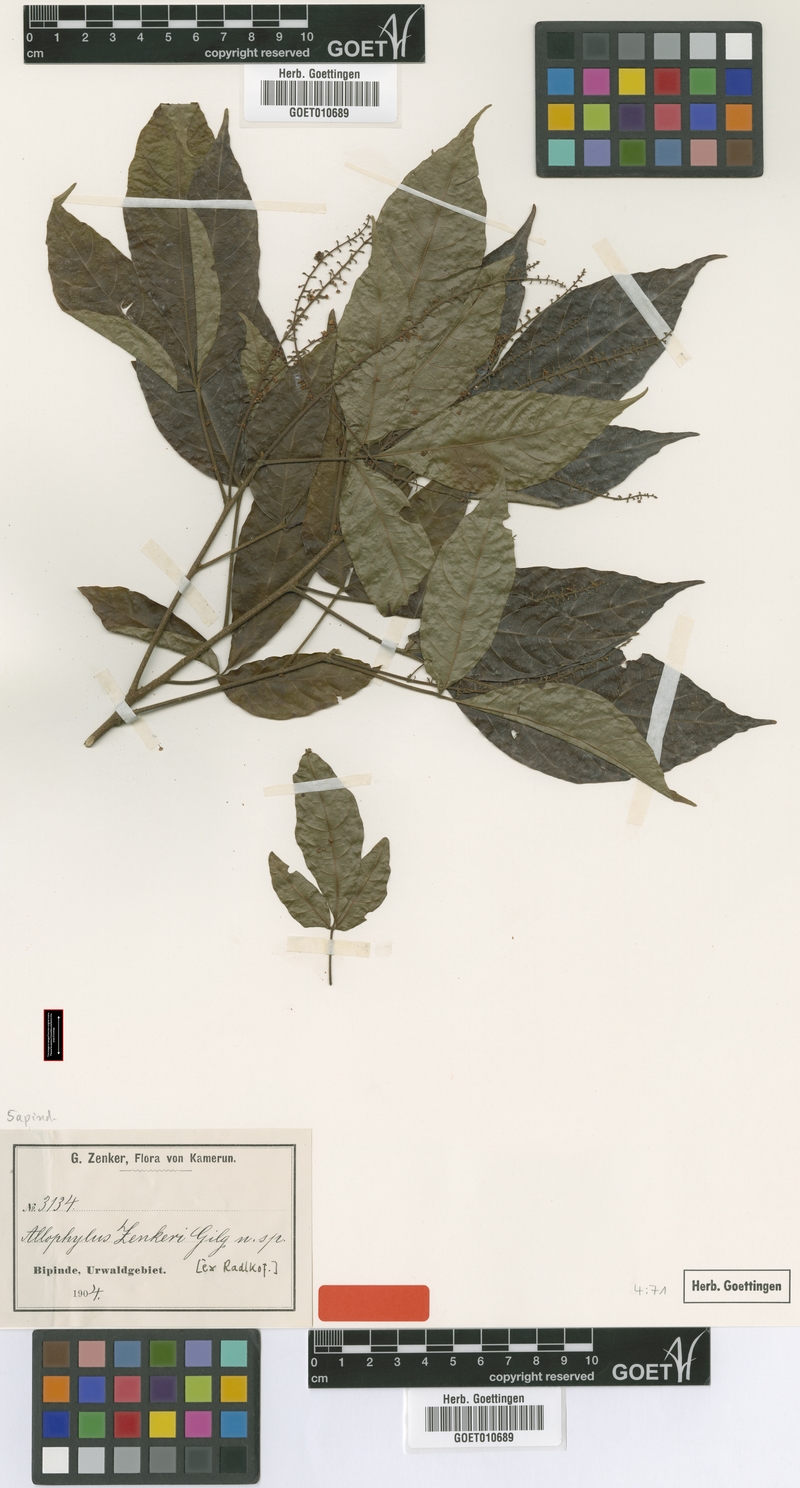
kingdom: Plantae
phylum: Tracheophyta
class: Magnoliopsida
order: Sapindales
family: Sapindaceae
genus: Allophylus
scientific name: Allophylus zenkeri
